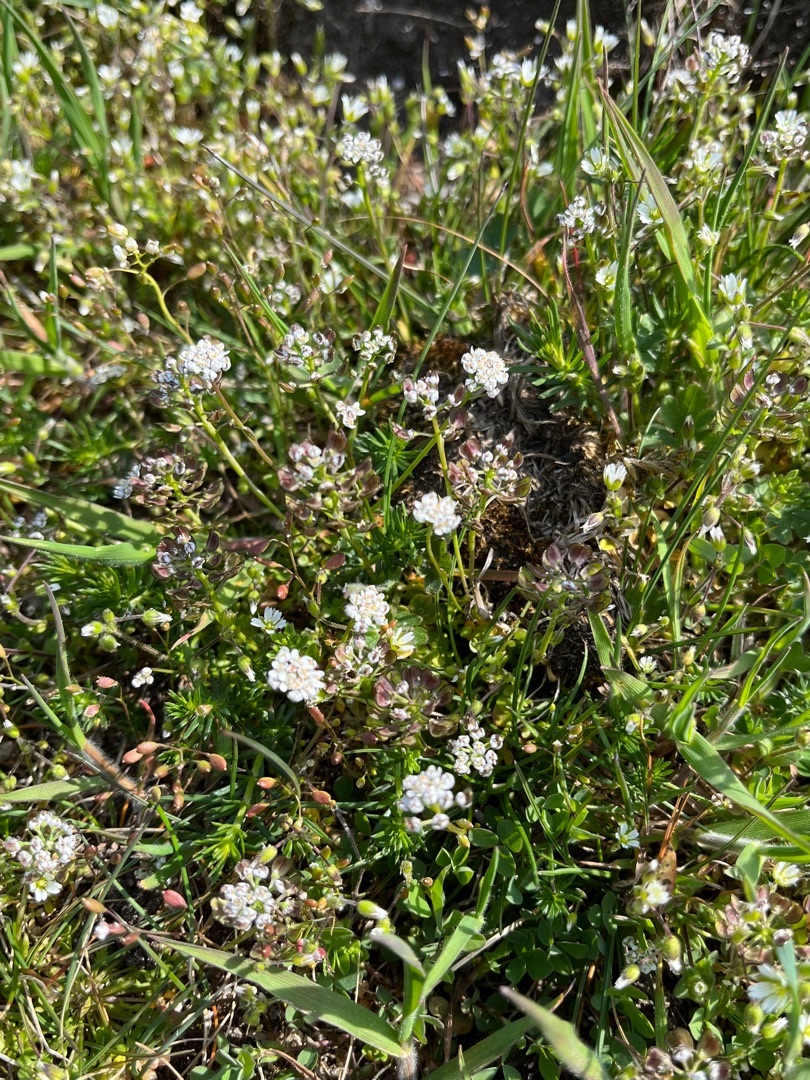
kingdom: Plantae
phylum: Tracheophyta
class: Magnoliopsida
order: Brassicales
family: Brassicaceae
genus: Teesdalia
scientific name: Teesdalia nudicaulis
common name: Flipkrave
